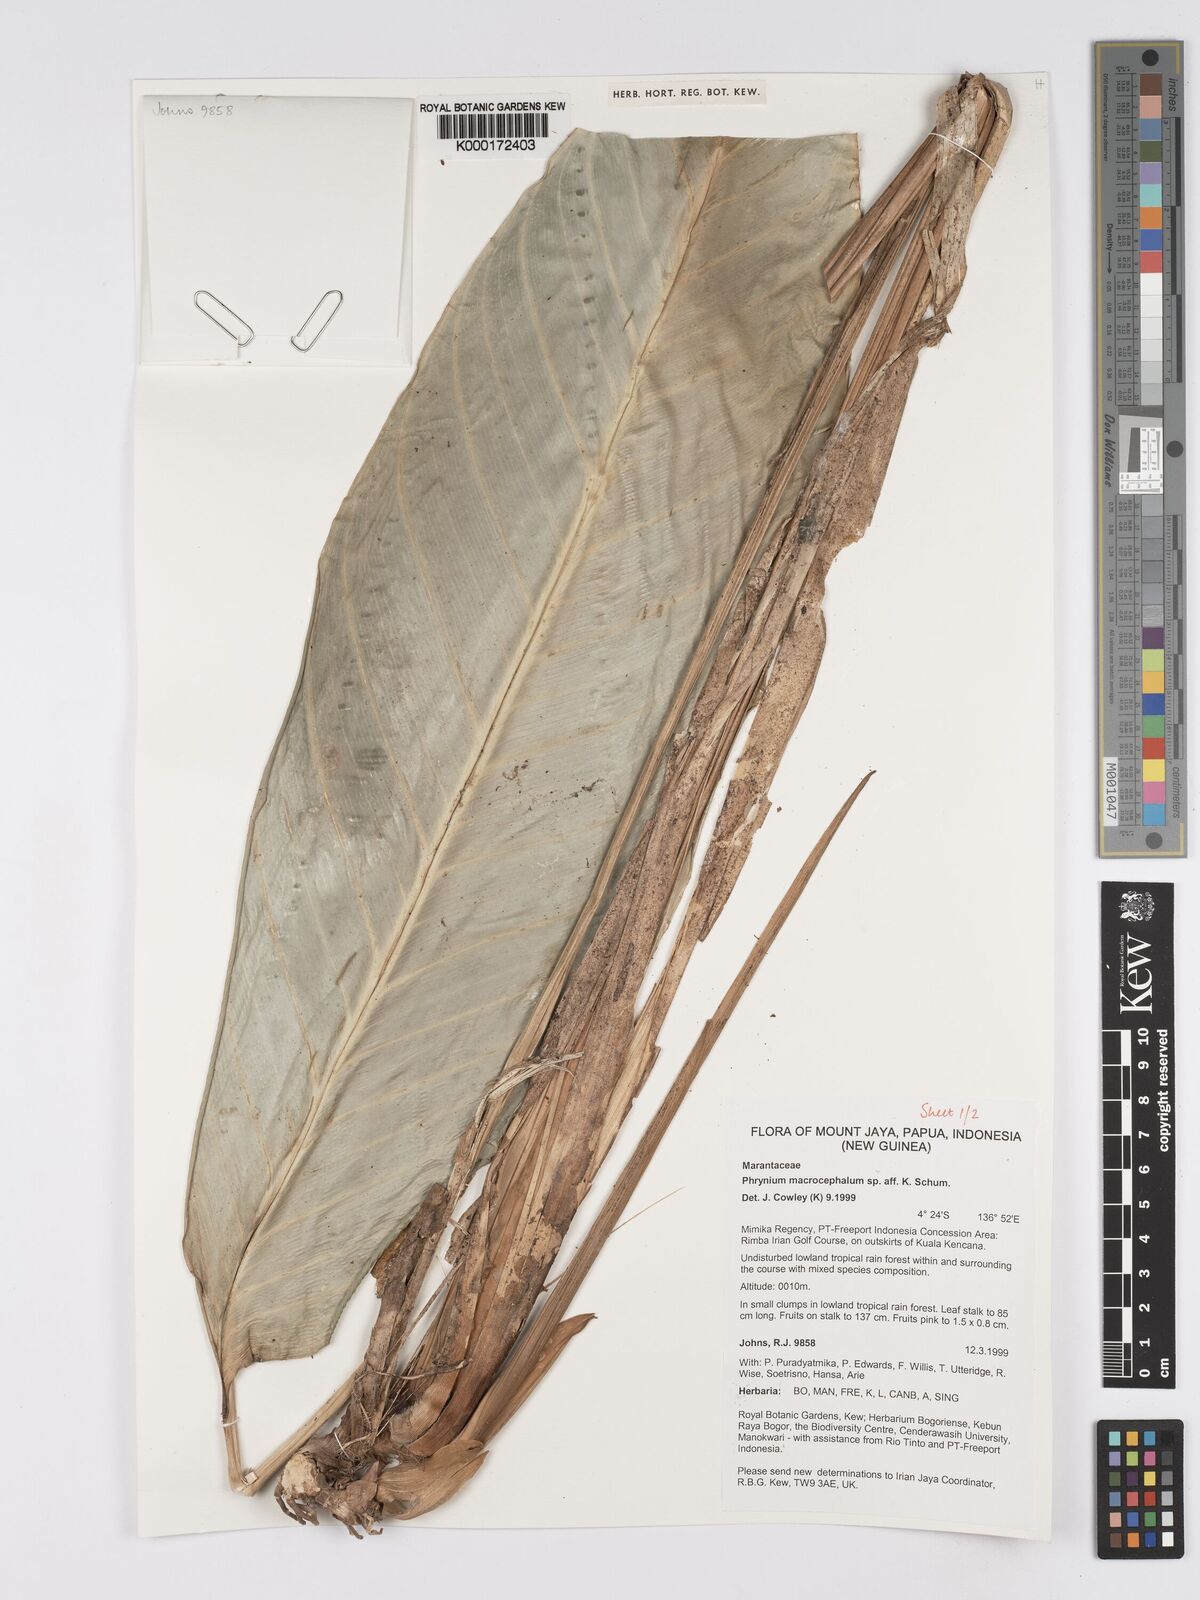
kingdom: Plantae
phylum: Tracheophyta
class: Liliopsida
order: Zingiberales
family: Marantaceae
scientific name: Marantaceae
